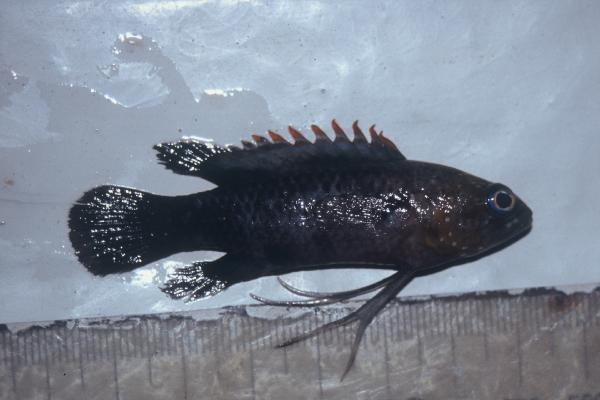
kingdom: Animalia
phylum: Chordata
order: Perciformes
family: Plesiopidae
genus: Plesiops
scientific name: Plesiops coeruleolineatus
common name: Crimsontip longfin
